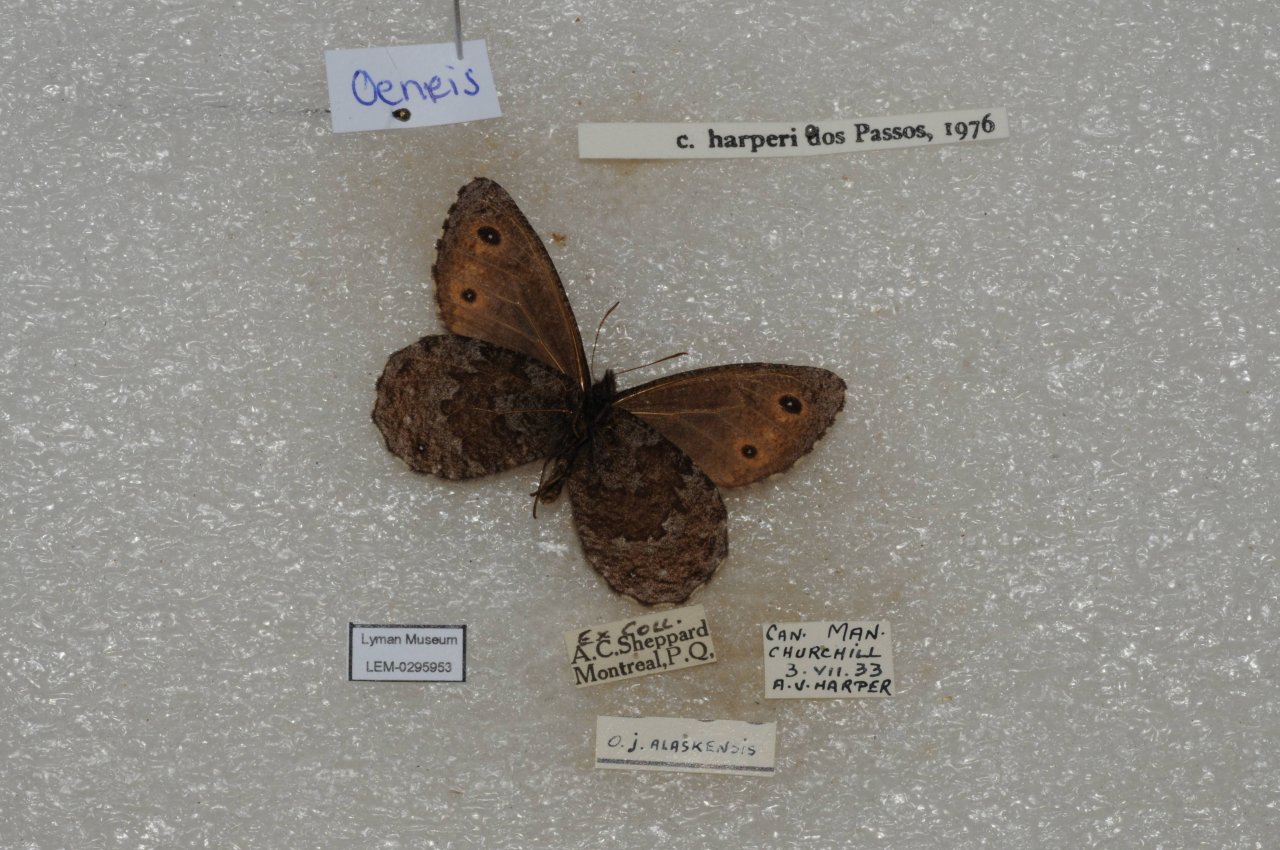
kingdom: Animalia
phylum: Arthropoda
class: Insecta
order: Lepidoptera
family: Nymphalidae
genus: Oeneis
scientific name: Oeneis jutta
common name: Jutta Arctic
